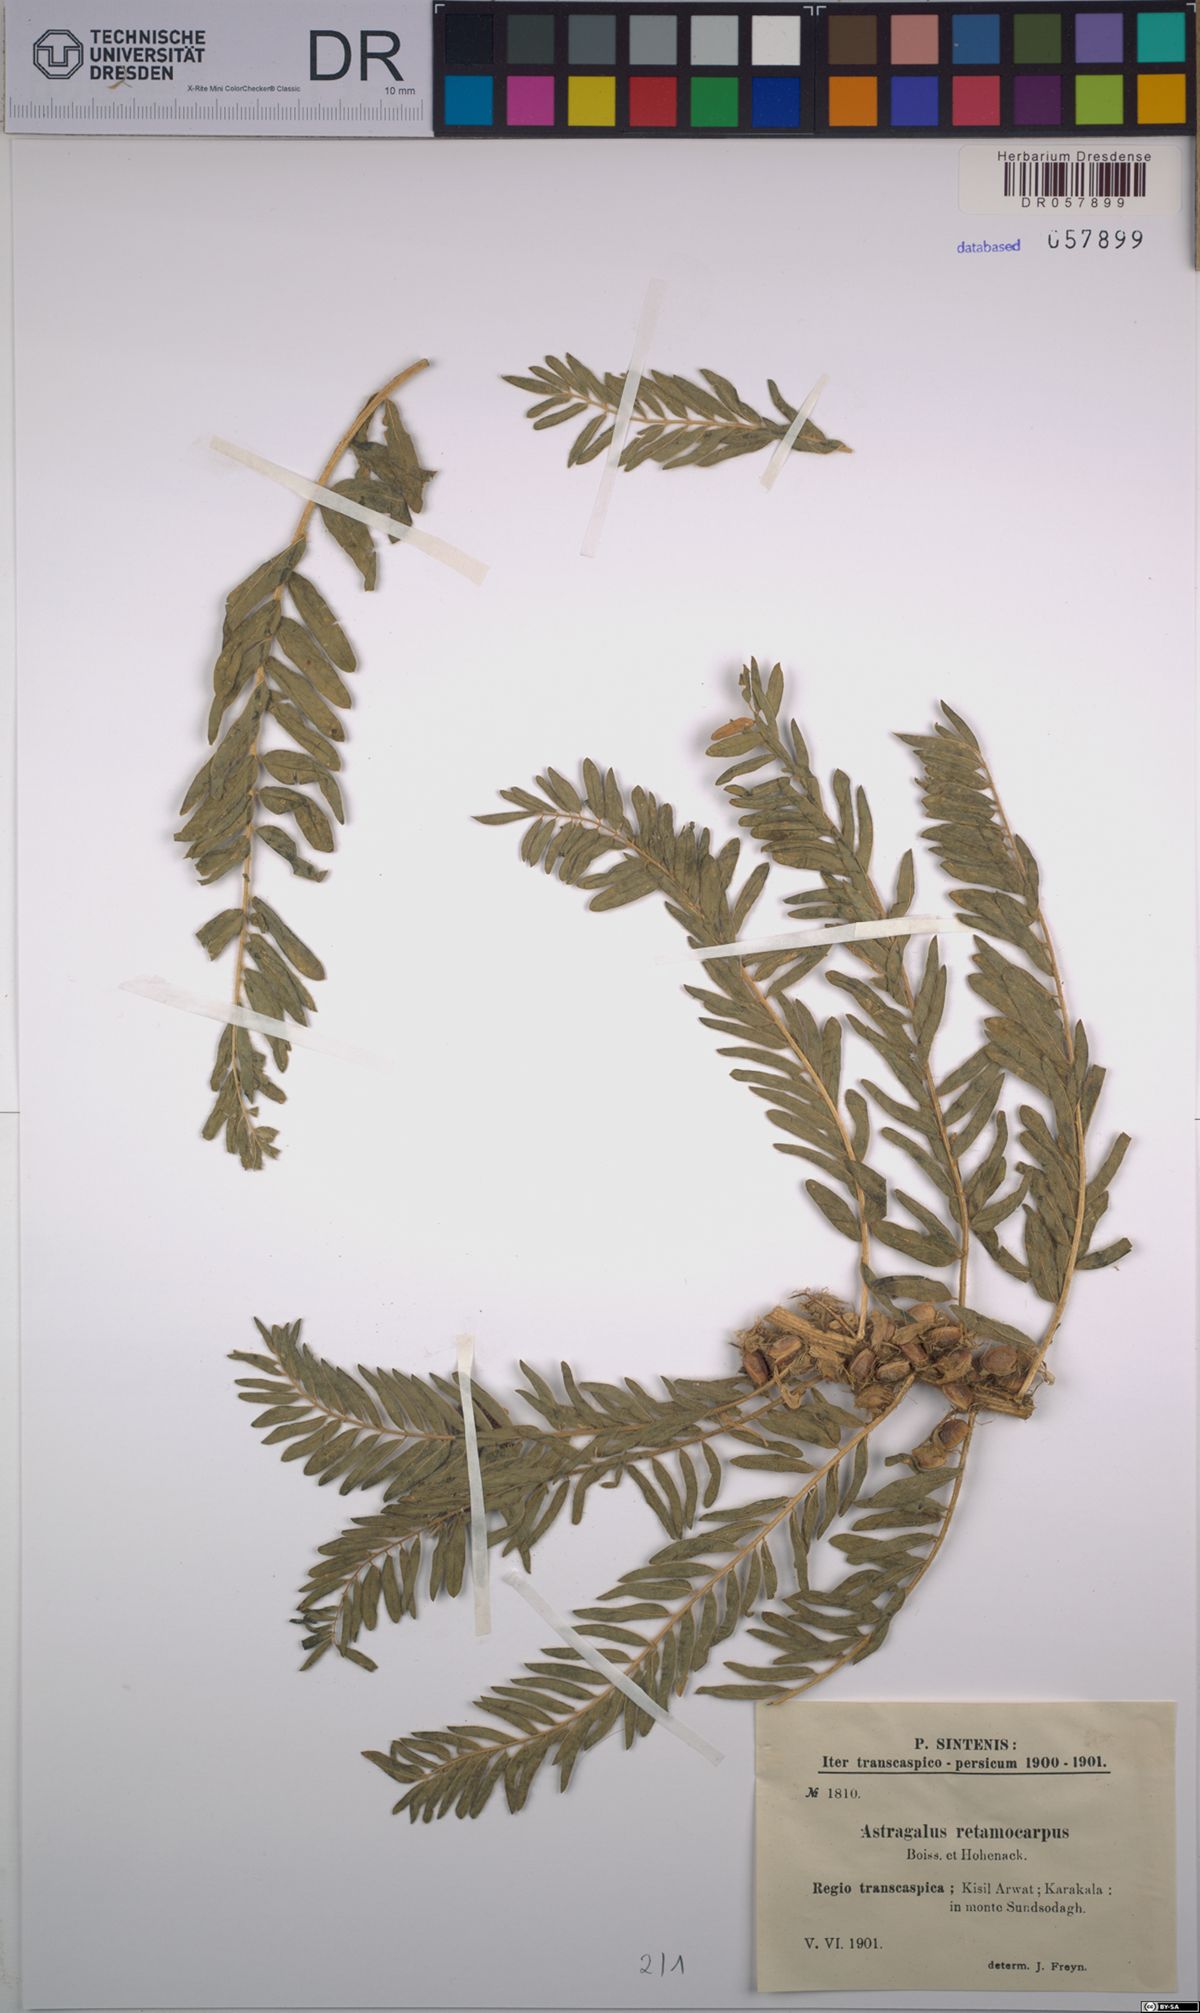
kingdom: Plantae
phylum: Tracheophyta
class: Magnoliopsida
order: Fabales
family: Fabaceae
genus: Astragalus
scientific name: Astragalus retamocarpus
